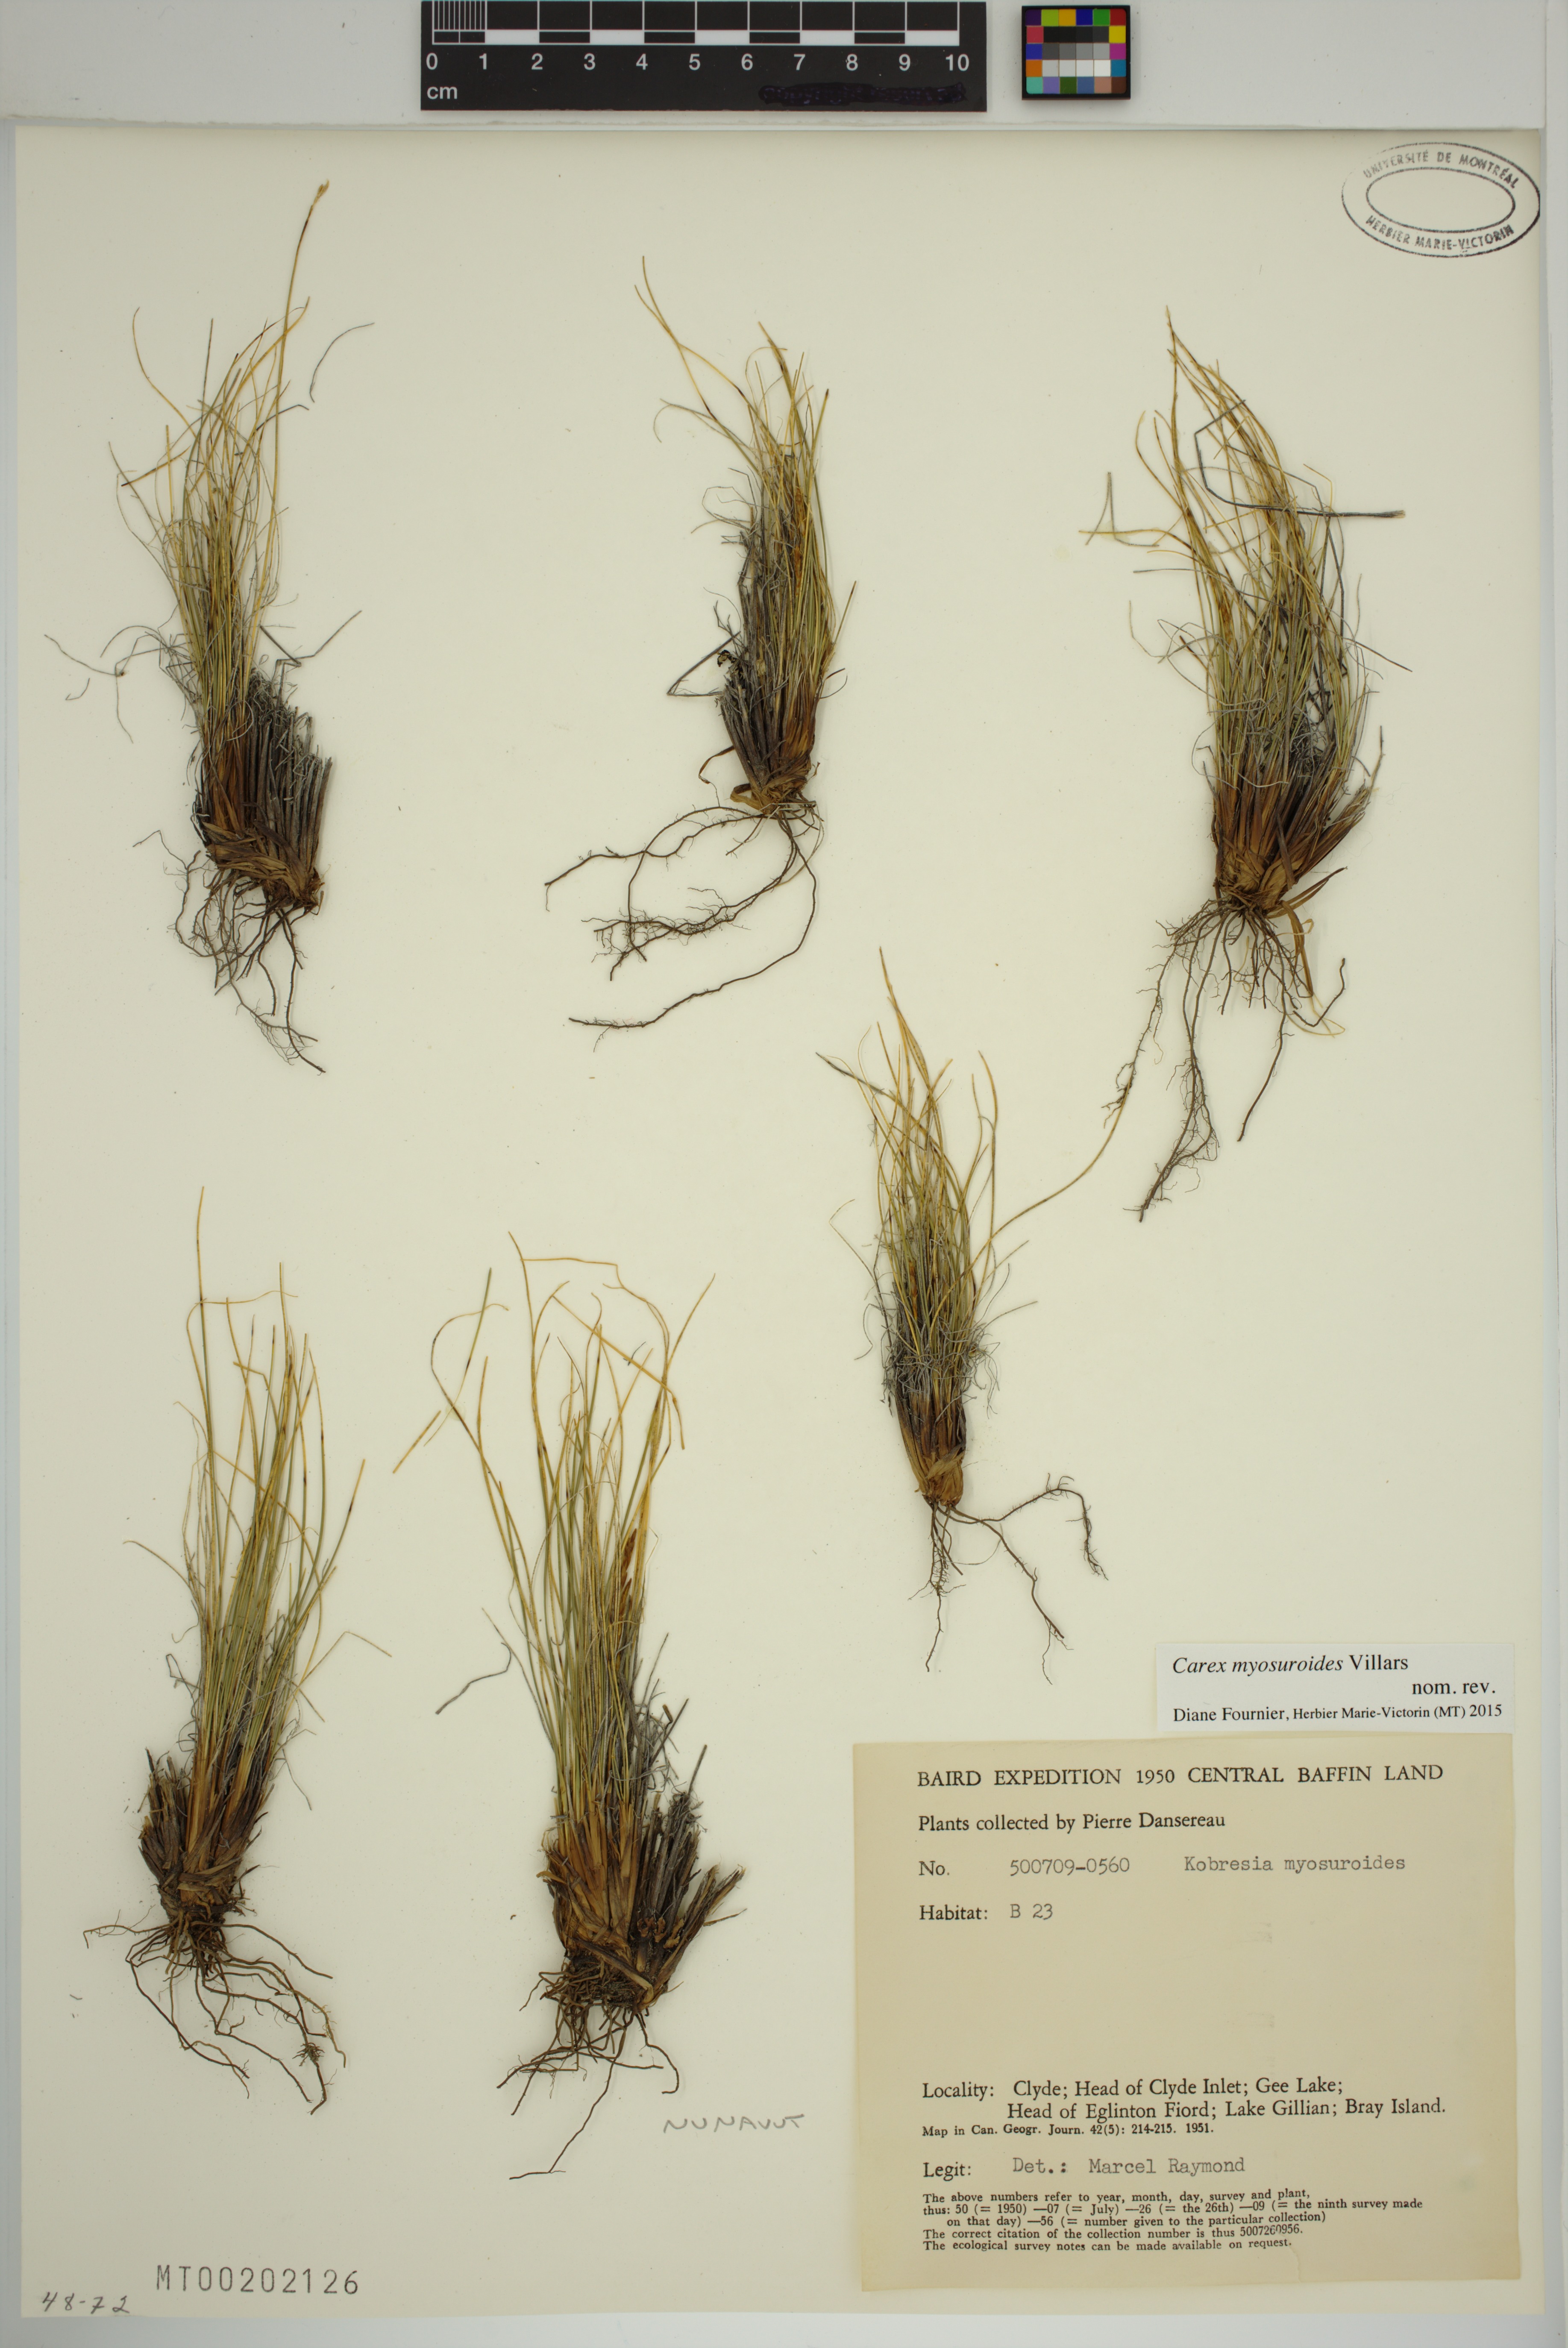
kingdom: Plantae
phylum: Tracheophyta
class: Liliopsida
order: Poales
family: Cyperaceae
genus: Carex
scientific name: Carex myosuroides
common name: Bellard's bog sedge
